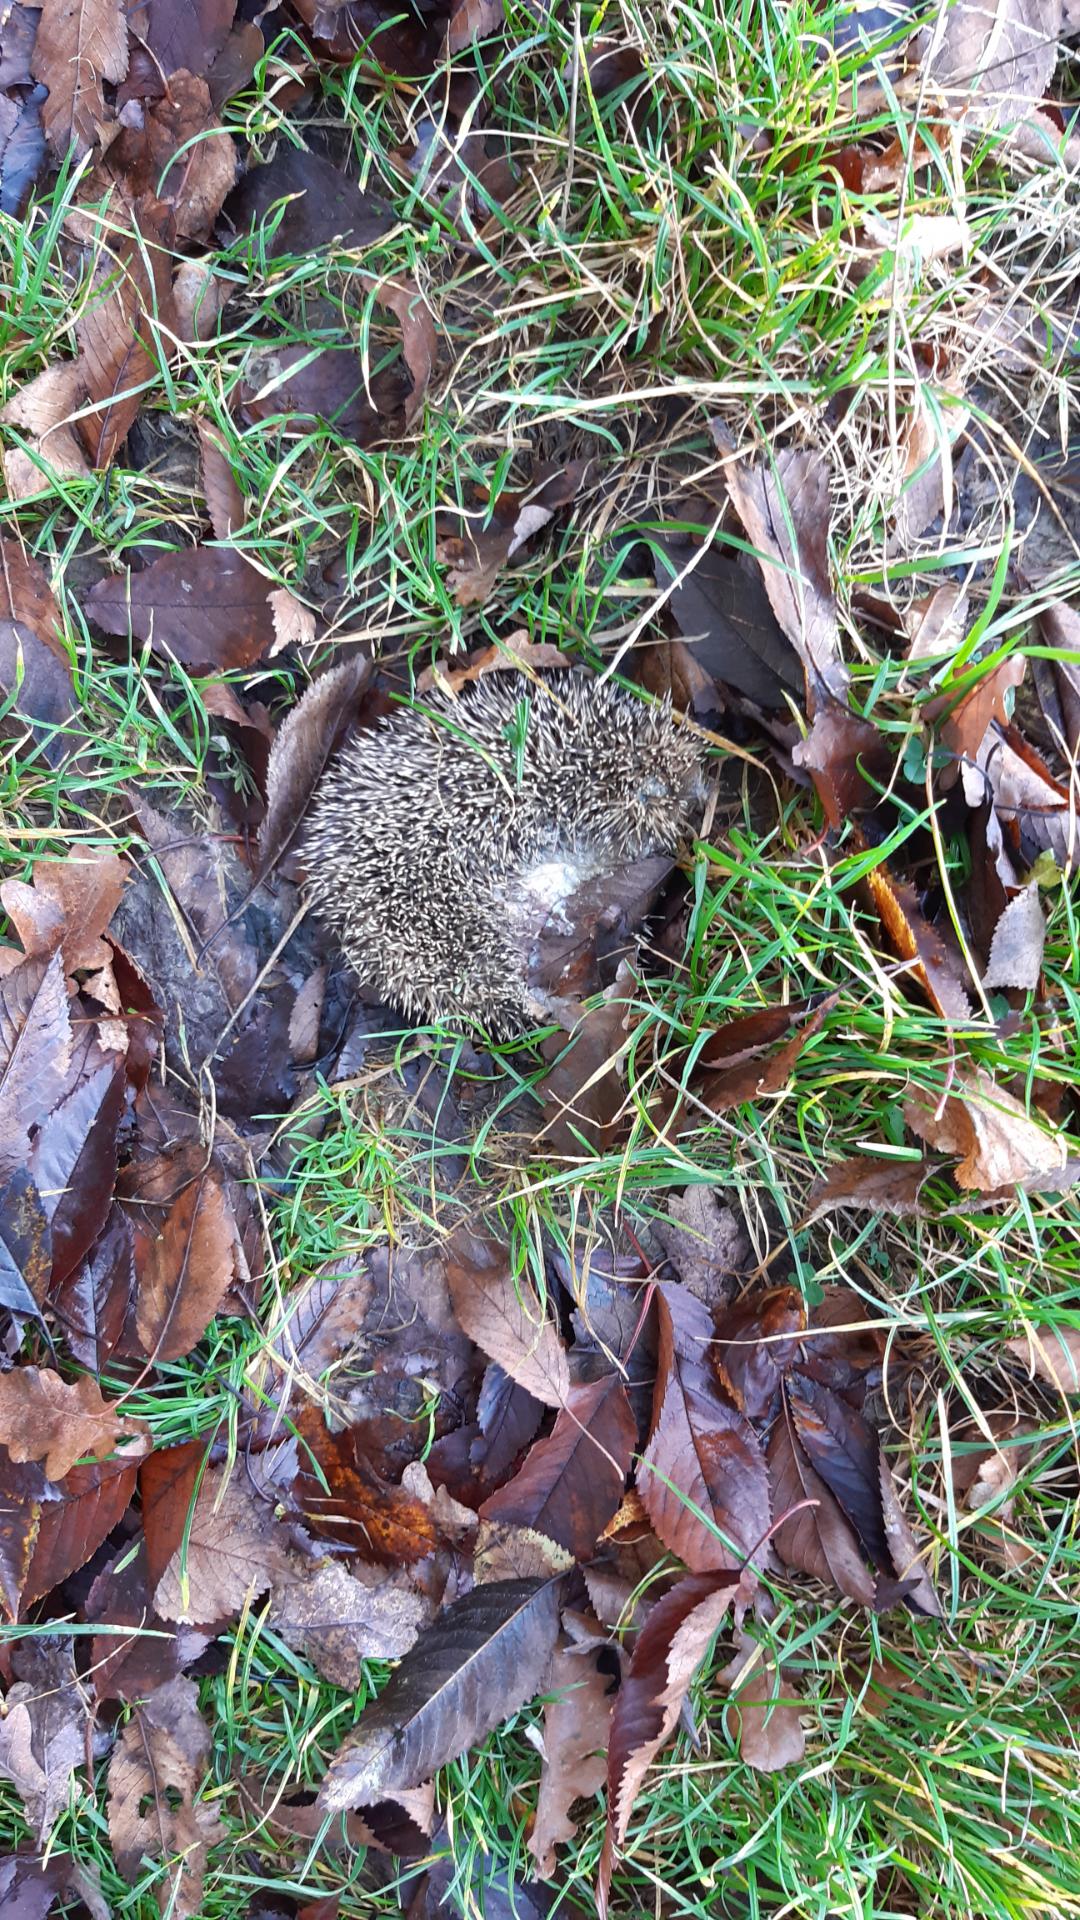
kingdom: Animalia
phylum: Chordata
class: Mammalia
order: Erinaceomorpha
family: Erinaceidae
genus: Erinaceus
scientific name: Erinaceus
